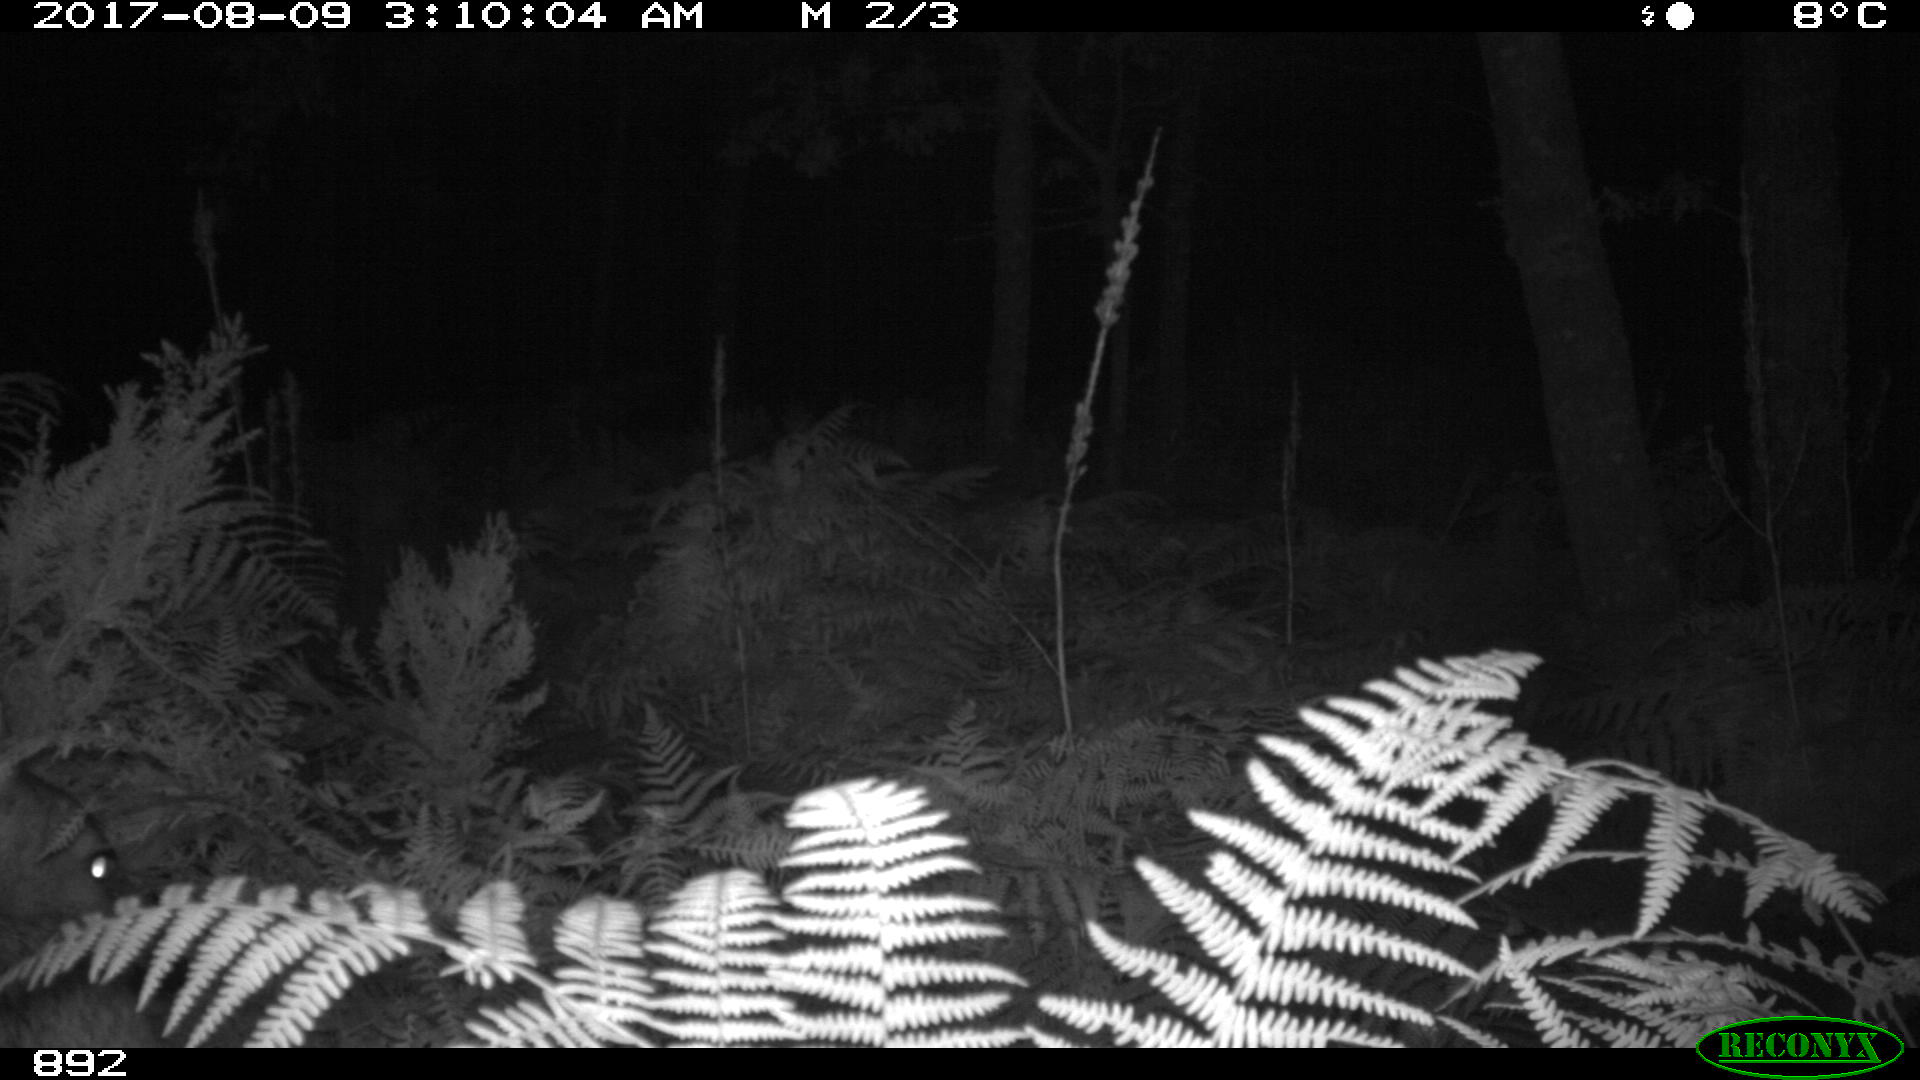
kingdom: Animalia
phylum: Chordata
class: Mammalia
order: Artiodactyla
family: Cervidae
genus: Capreolus
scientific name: Capreolus capreolus
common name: Western roe deer
